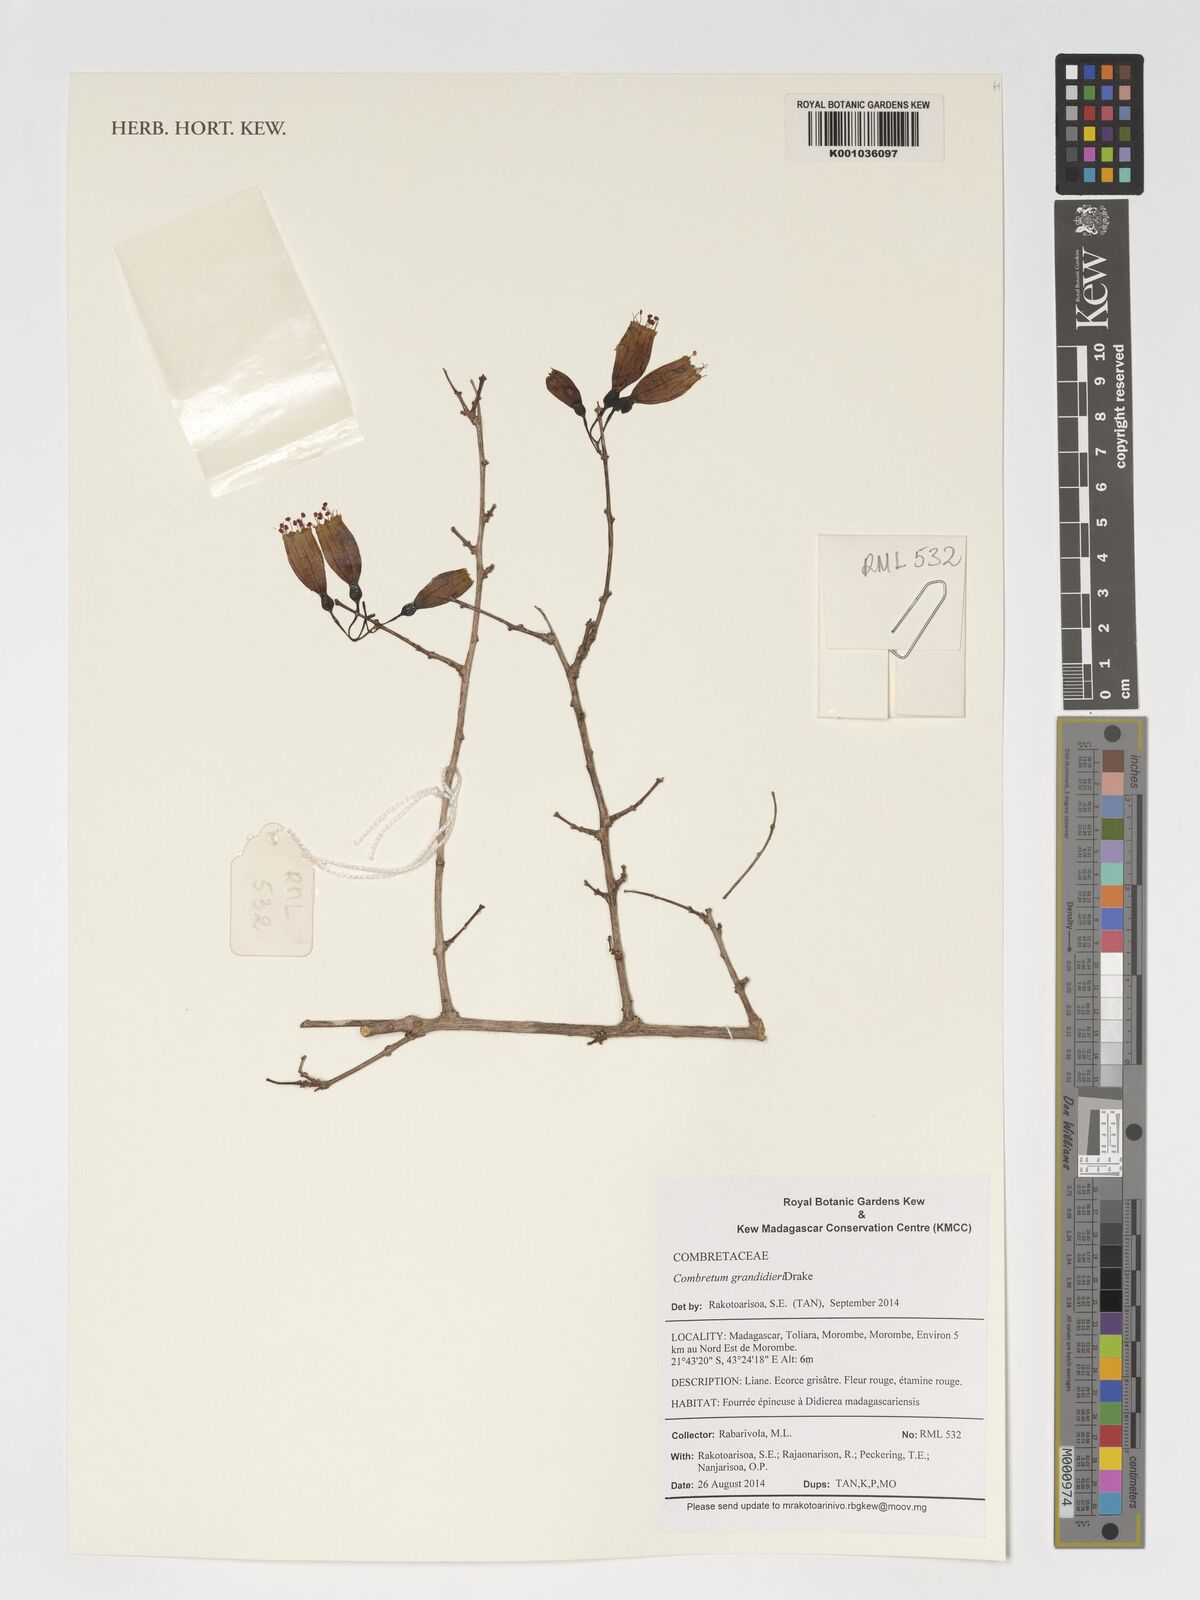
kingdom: Plantae
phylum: Tracheophyta
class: Magnoliopsida
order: Myrtales
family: Combretaceae
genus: Combretum
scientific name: Combretum grandidieri
